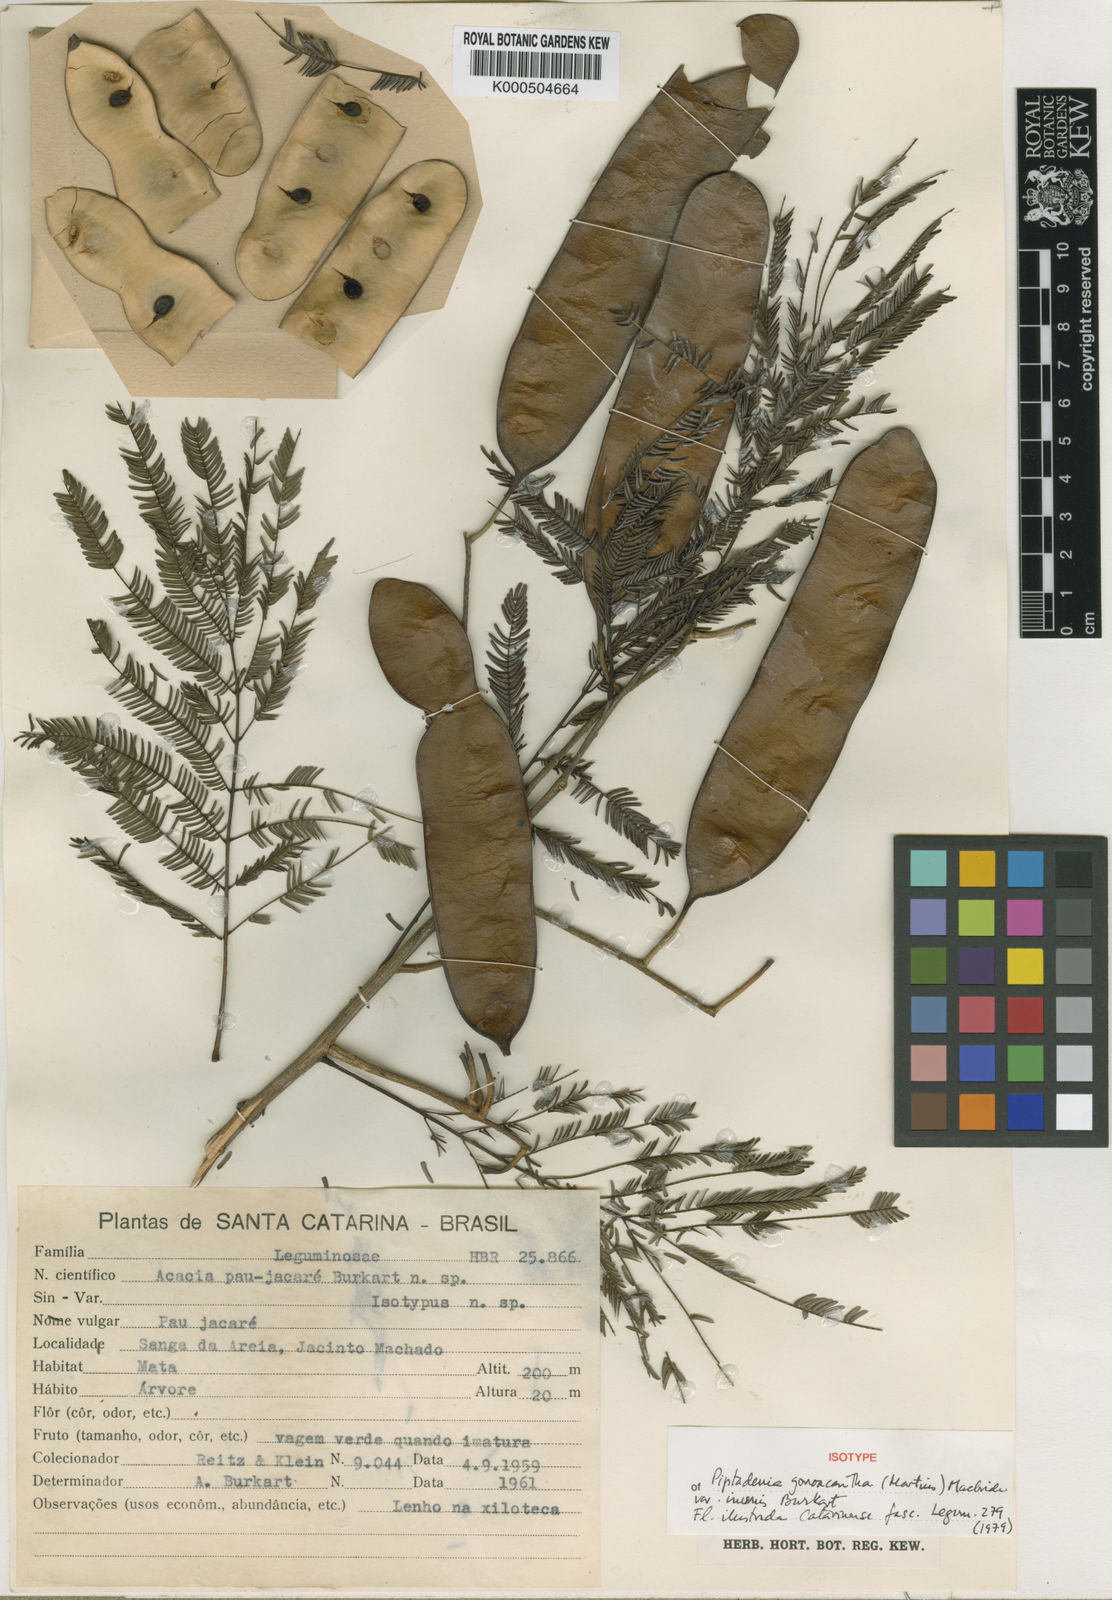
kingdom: Plantae
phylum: Tracheophyta
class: Magnoliopsida
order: Fabales
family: Fabaceae
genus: Piptadenia
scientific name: Piptadenia gonoacantha
